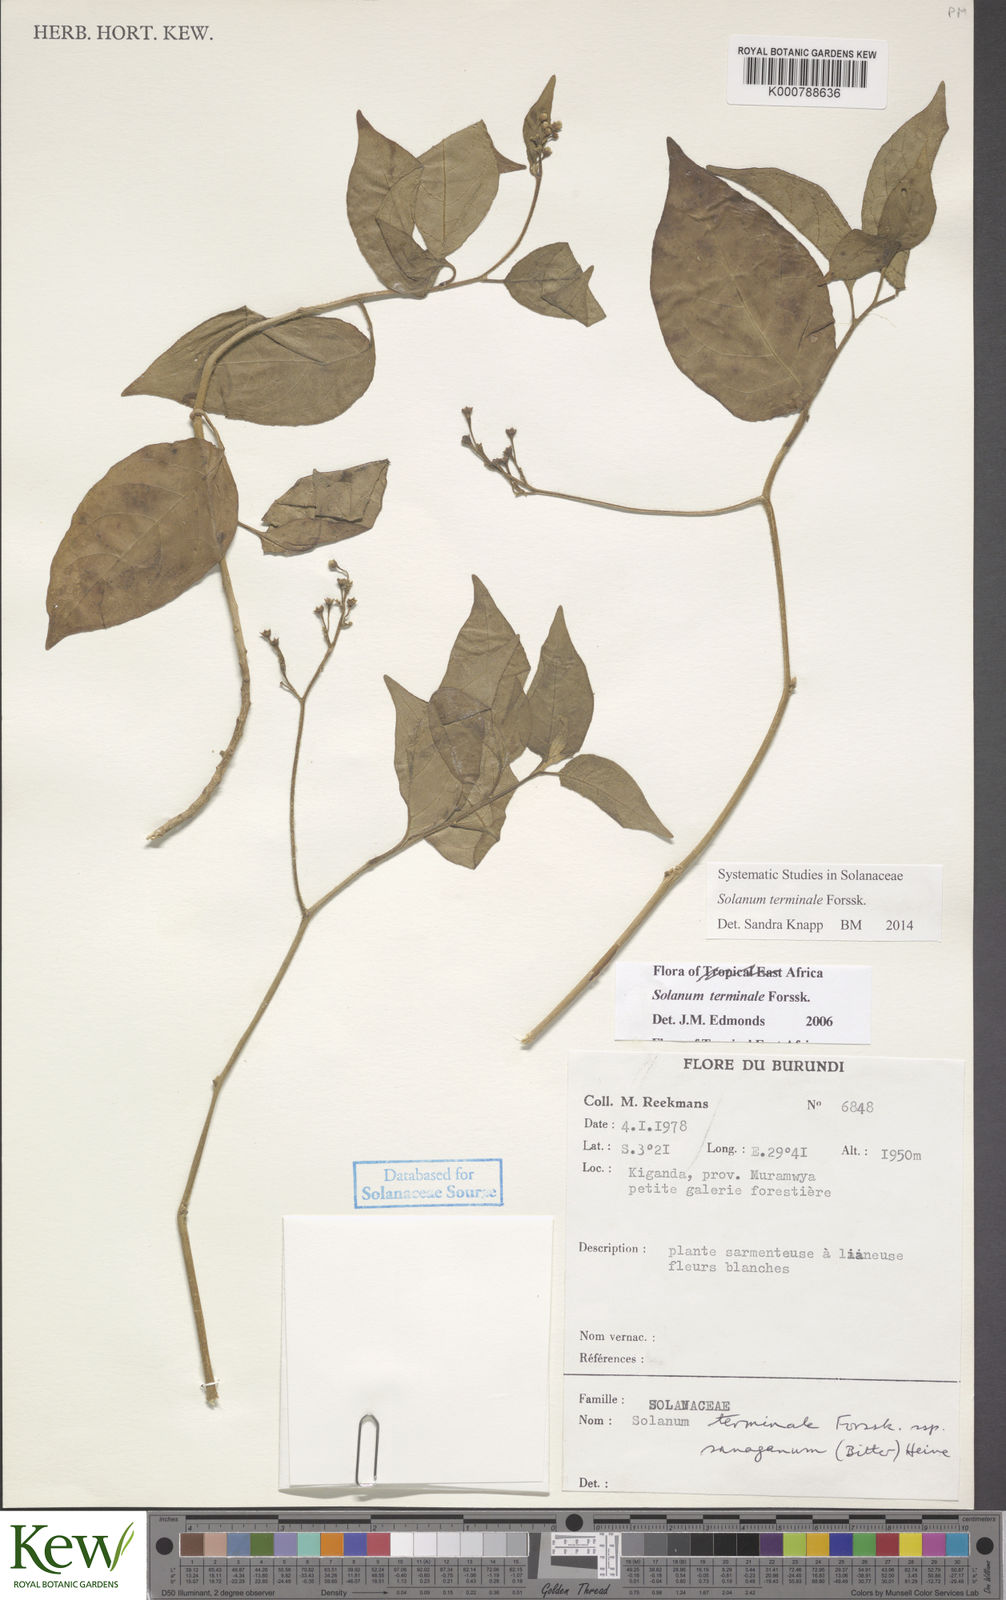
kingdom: Plantae
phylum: Tracheophyta
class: Magnoliopsida
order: Solanales
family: Solanaceae
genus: Solanum
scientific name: Solanum terminale
